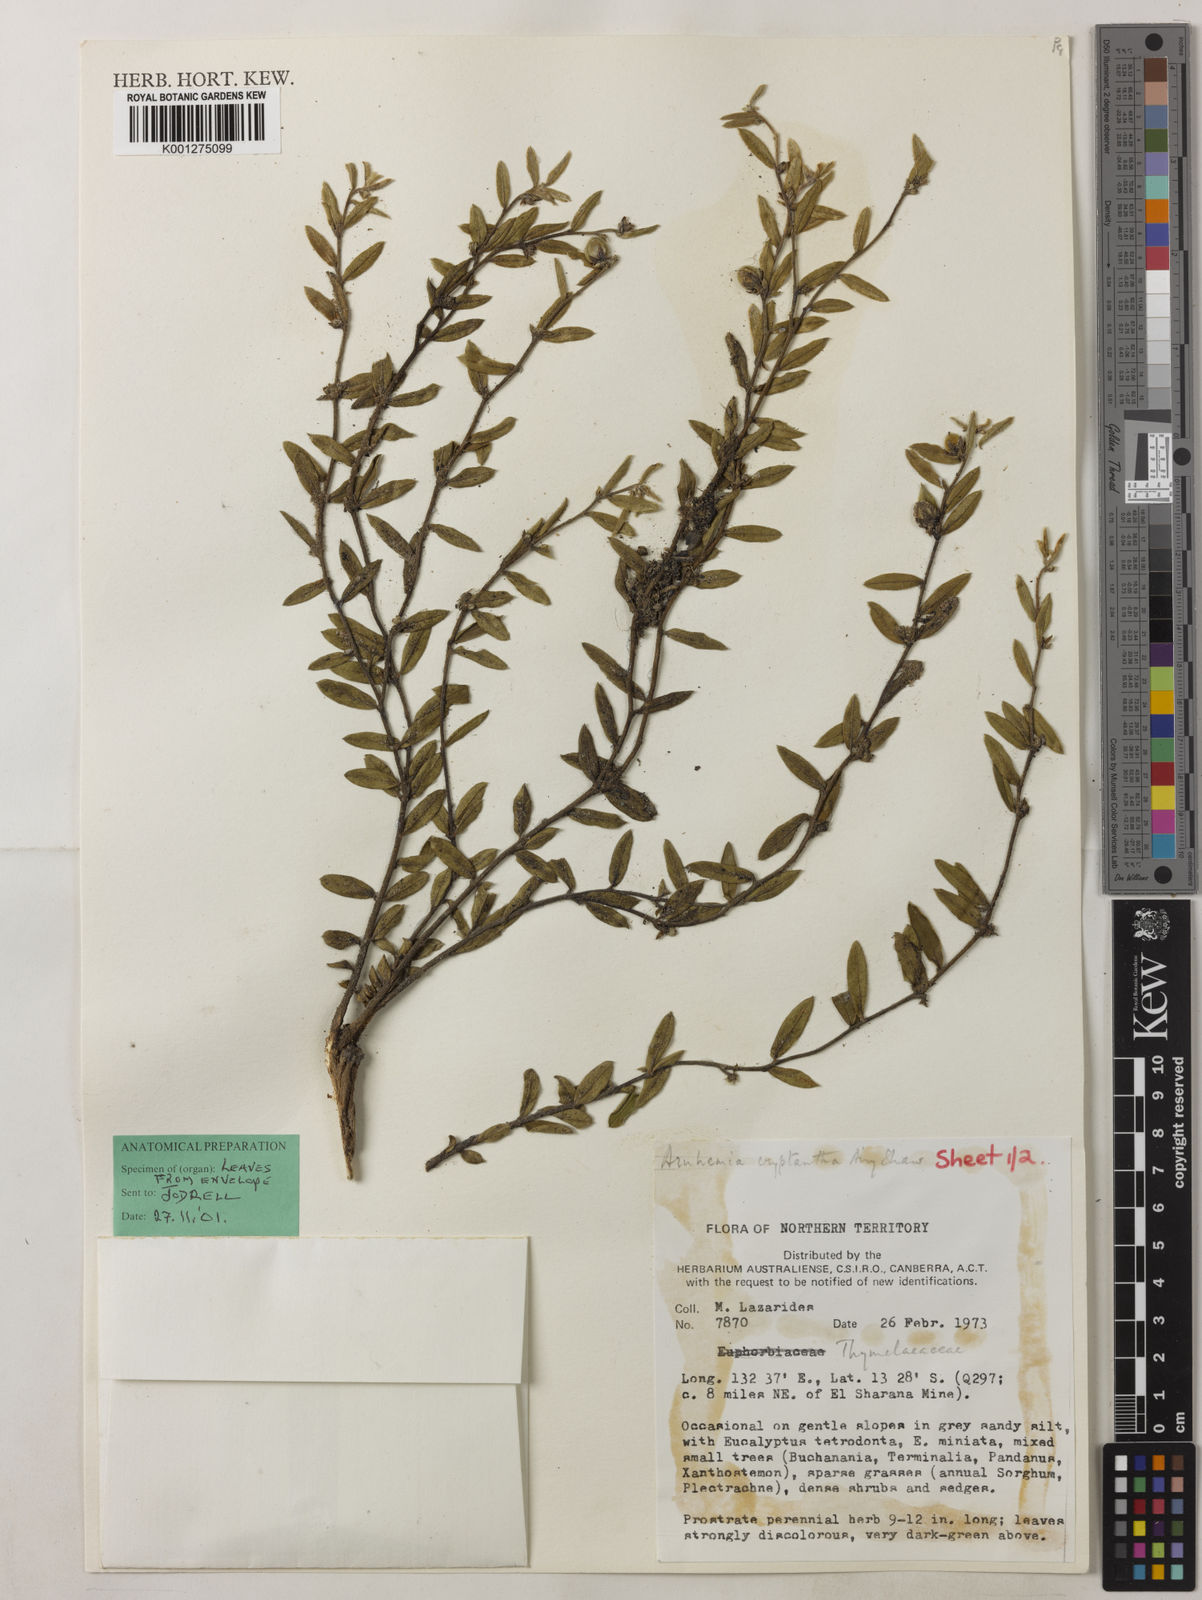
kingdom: Plantae
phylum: Tracheophyta
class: Magnoliopsida
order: Malvales
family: Thymelaeaceae
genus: Arnhemia
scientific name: Arnhemia cryptantha
